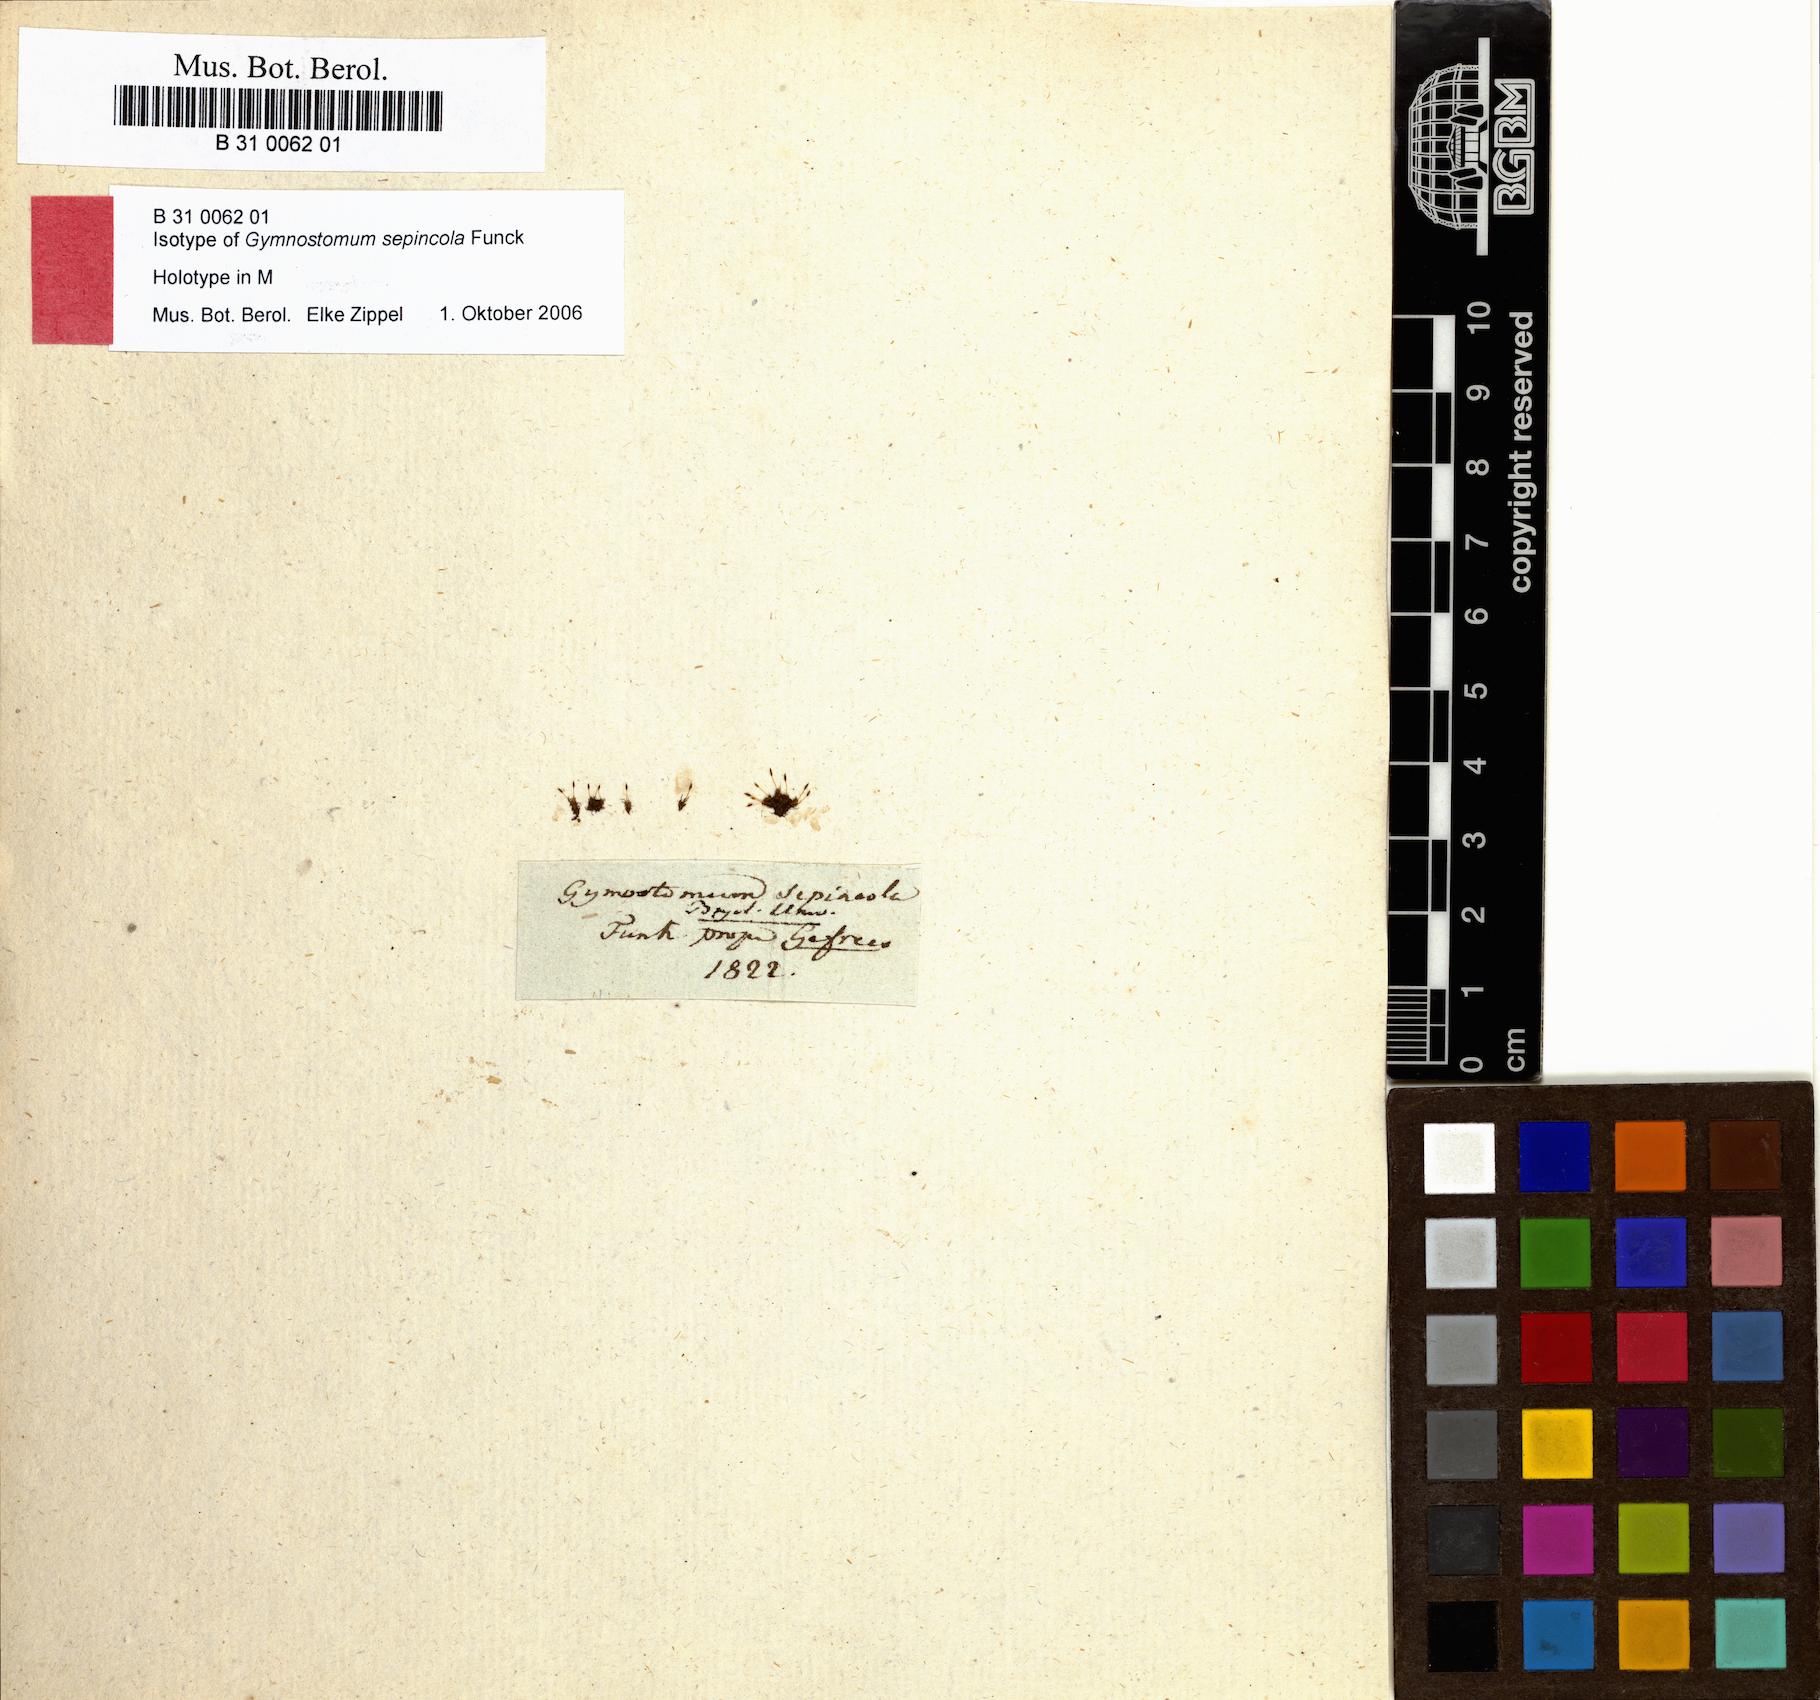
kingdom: Plantae
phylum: Bryophyta
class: Bryopsida
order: Pottiales
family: Pottiaceae
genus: Weissia
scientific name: Weissia brachycarpa
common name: Small-mouthed beardless-moss
